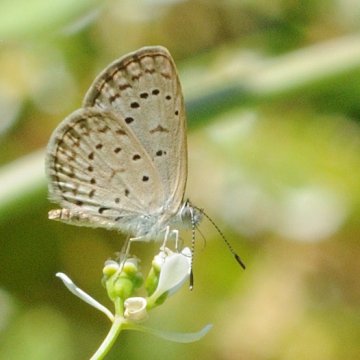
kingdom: Animalia
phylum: Arthropoda
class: Insecta
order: Lepidoptera
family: Lycaenidae
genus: Zizeeria
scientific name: Zizeeria knysna
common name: Dark Grass Blue
